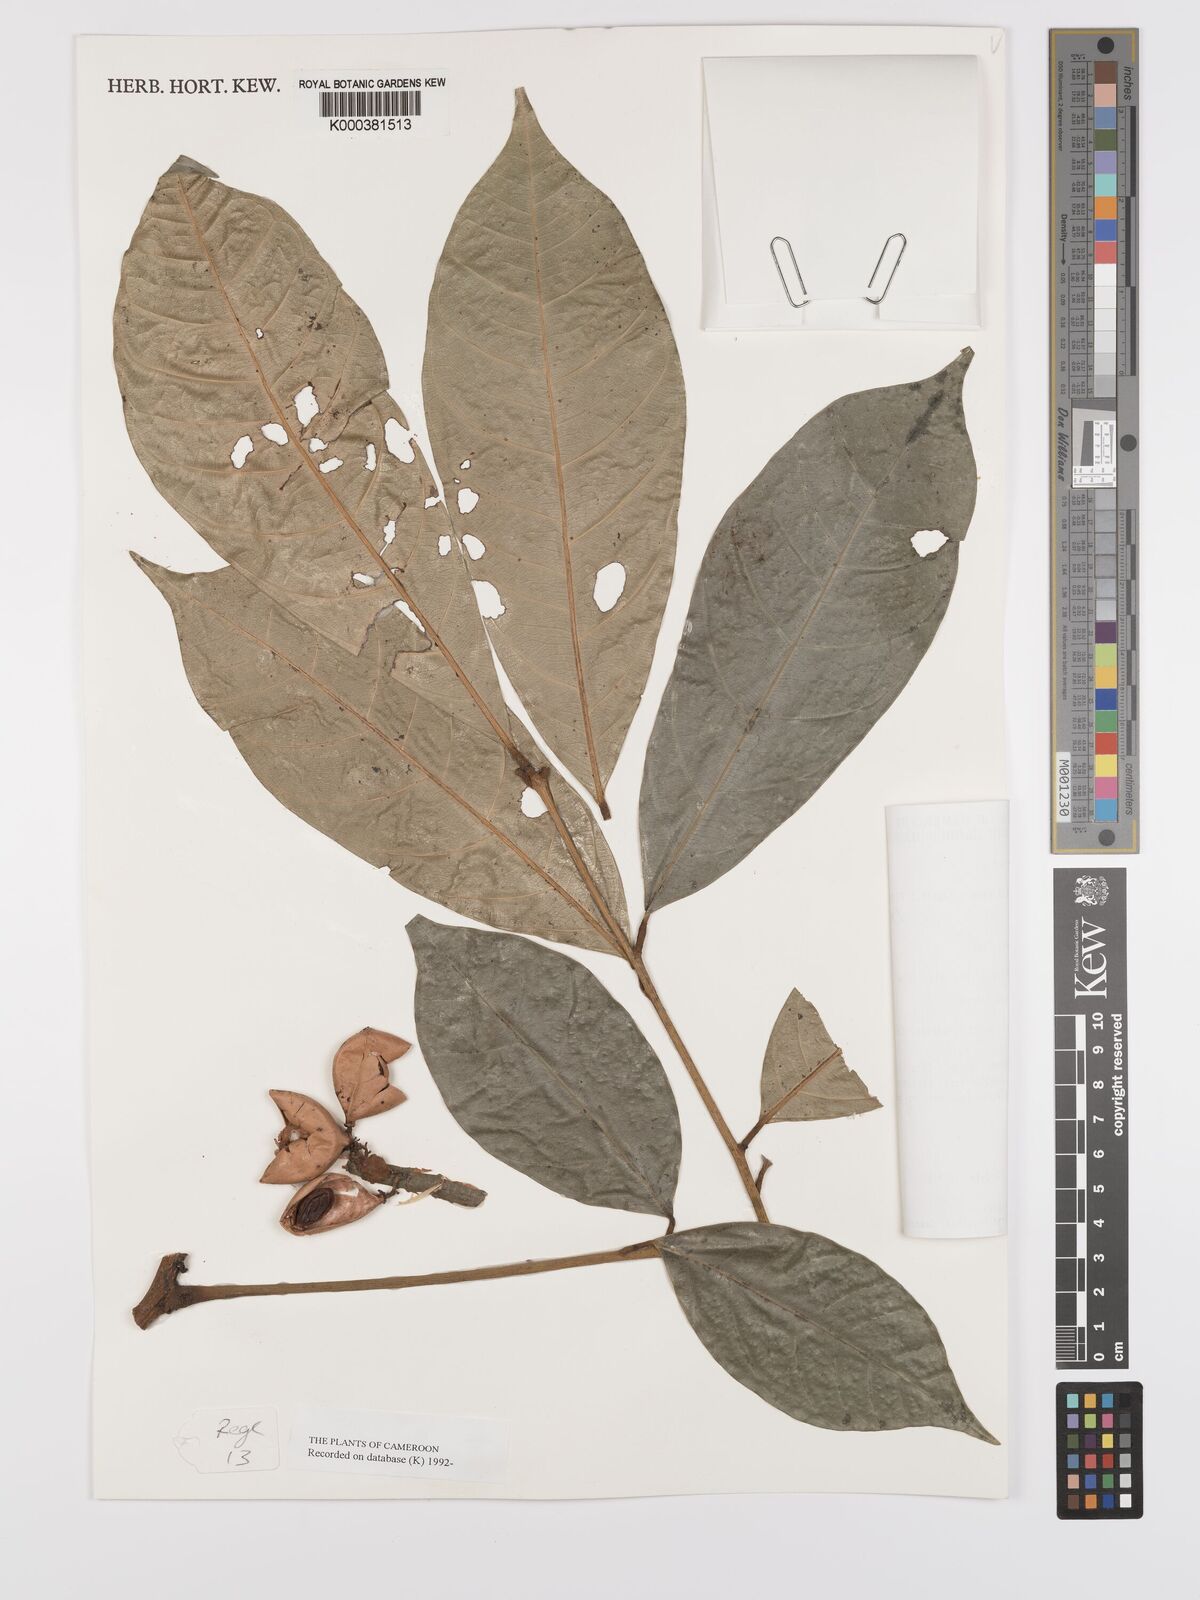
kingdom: Plantae
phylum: Tracheophyta
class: Magnoliopsida
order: Oxalidales
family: Connaraceae
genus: Jollydora
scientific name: Jollydora duparquetiana
